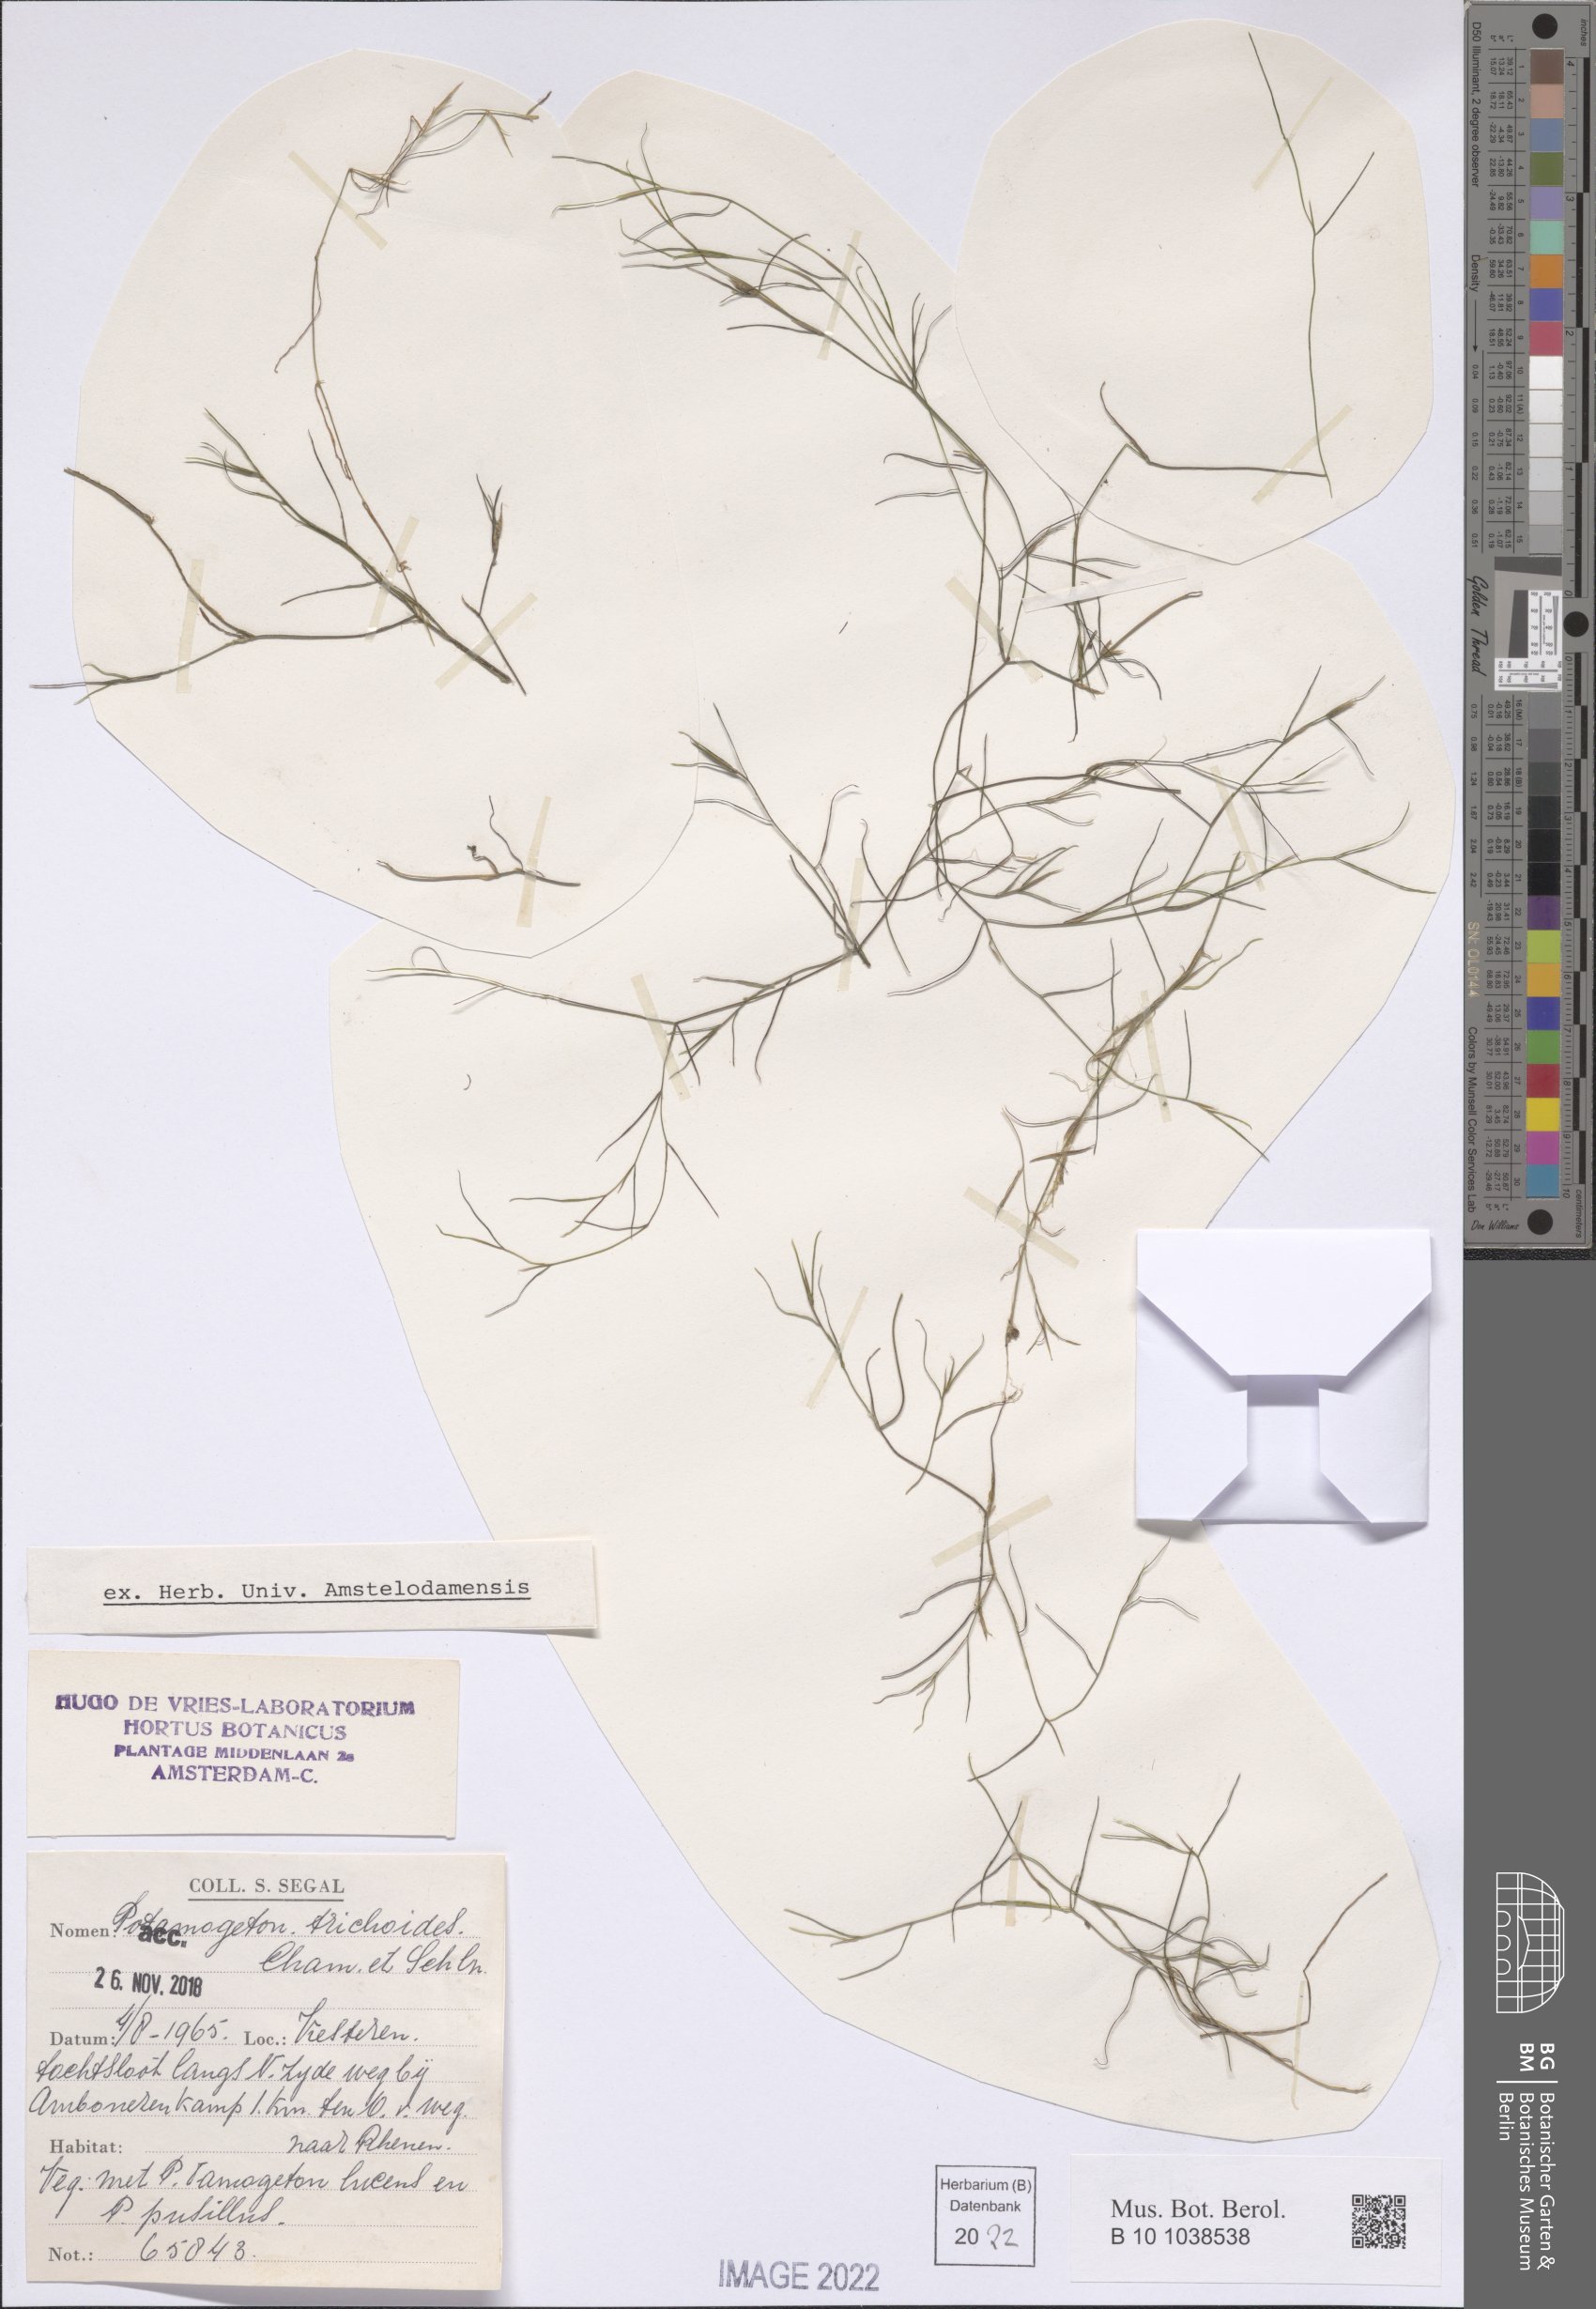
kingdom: Plantae
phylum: Tracheophyta
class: Liliopsida
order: Alismatales
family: Potamogetonaceae
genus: Potamogeton
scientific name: Potamogeton trichoides
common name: Hairlike pondweed
